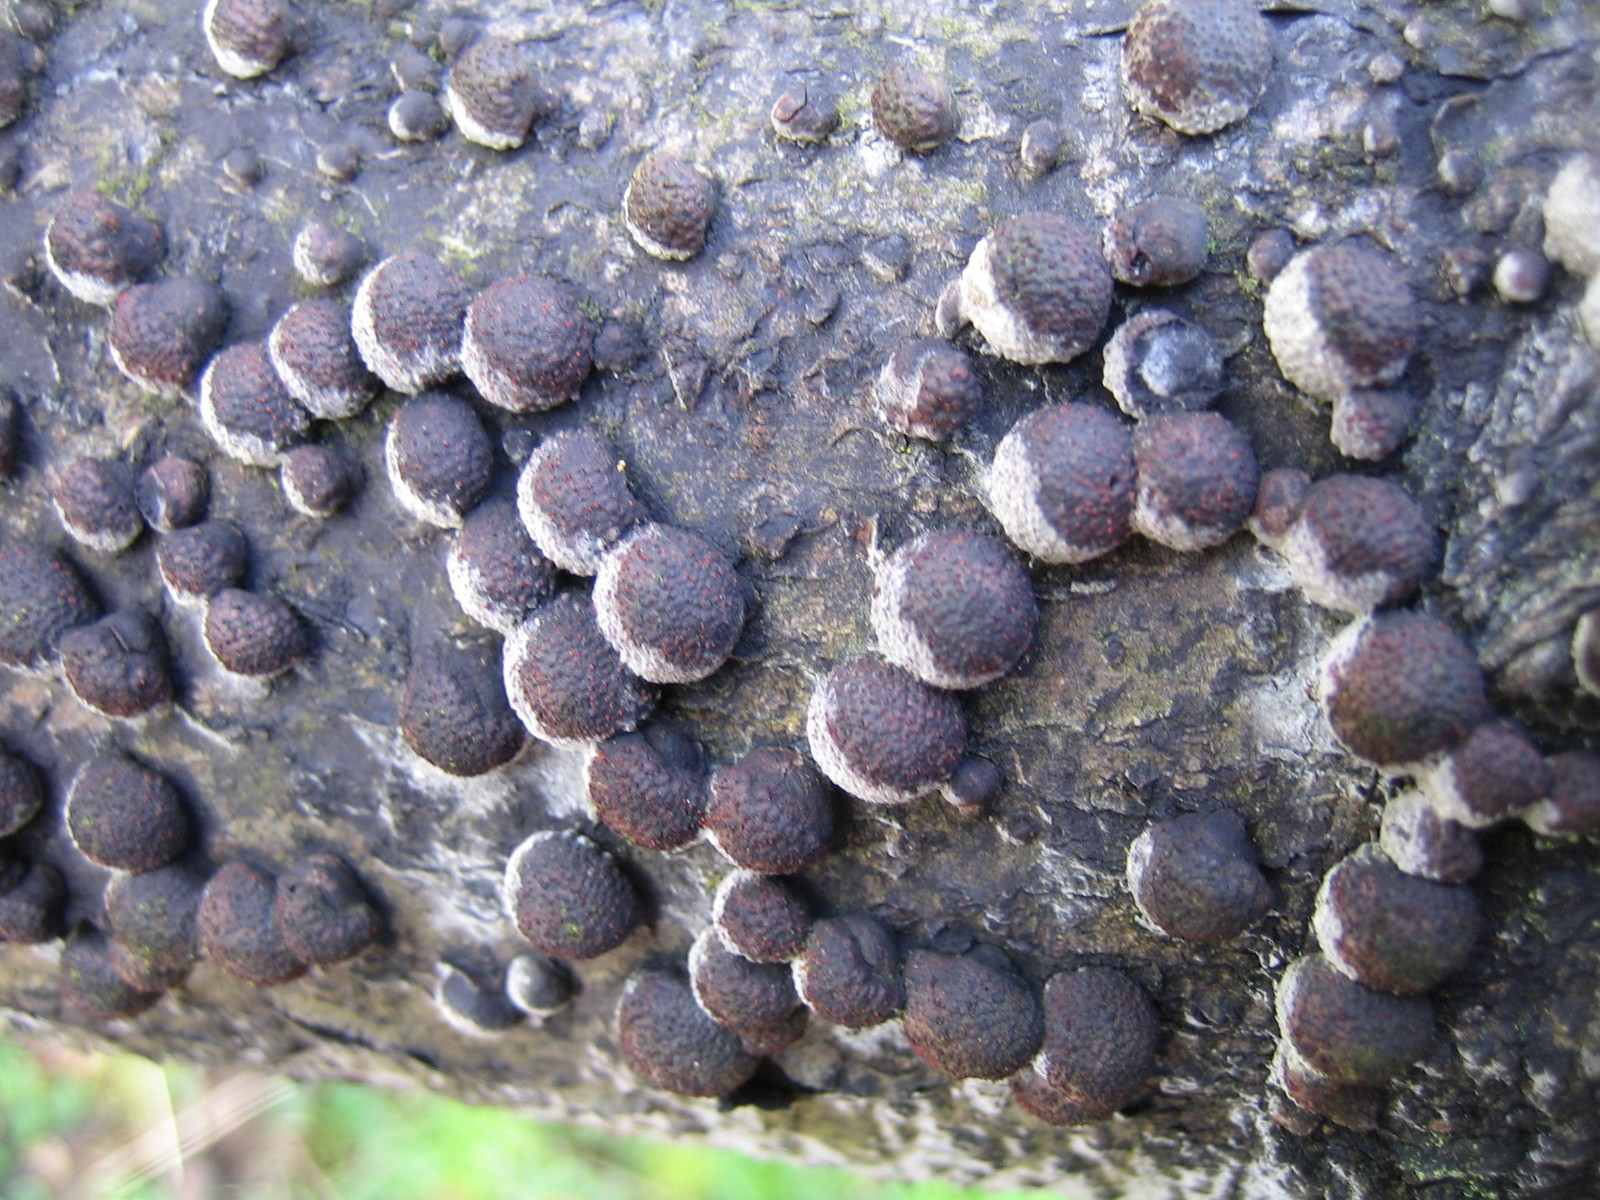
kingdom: Fungi
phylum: Ascomycota
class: Sordariomycetes
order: Xylariales
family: Hypoxylaceae
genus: Hypoxylon
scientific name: Hypoxylon fragiforme
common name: kuljordbær
